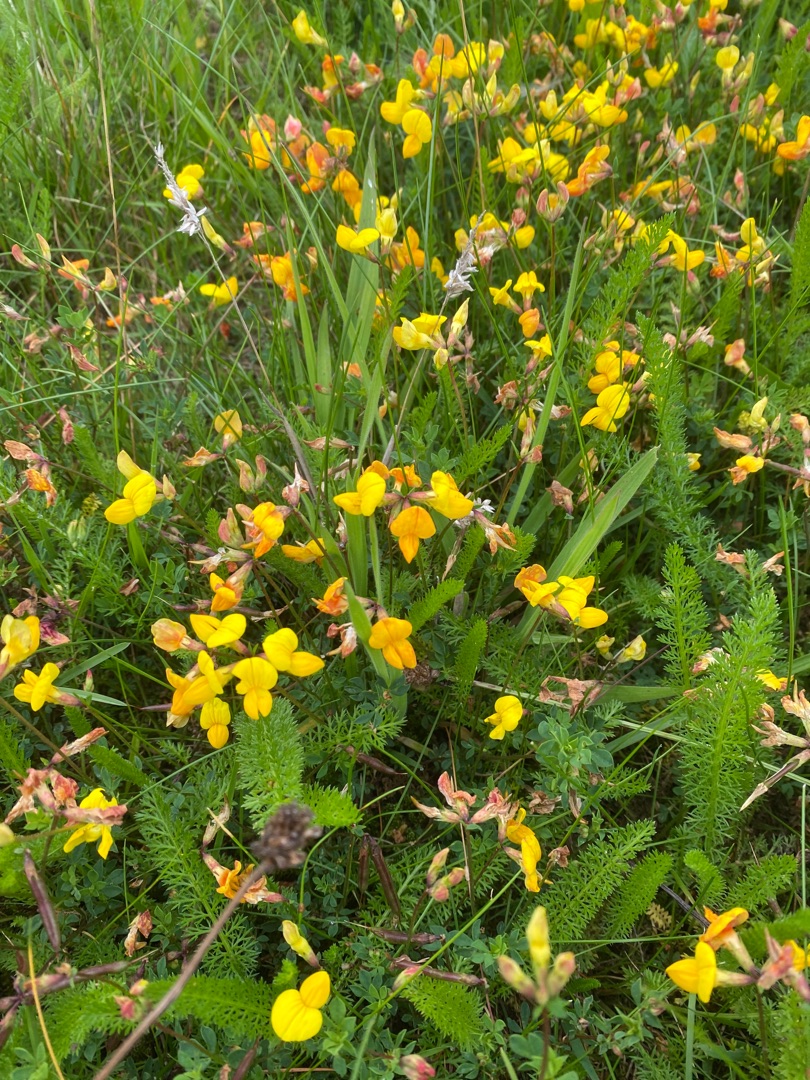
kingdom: Plantae
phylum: Tracheophyta
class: Magnoliopsida
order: Fabales
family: Fabaceae
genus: Lotus
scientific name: Lotus corniculatus
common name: Almindelig kællingetand
